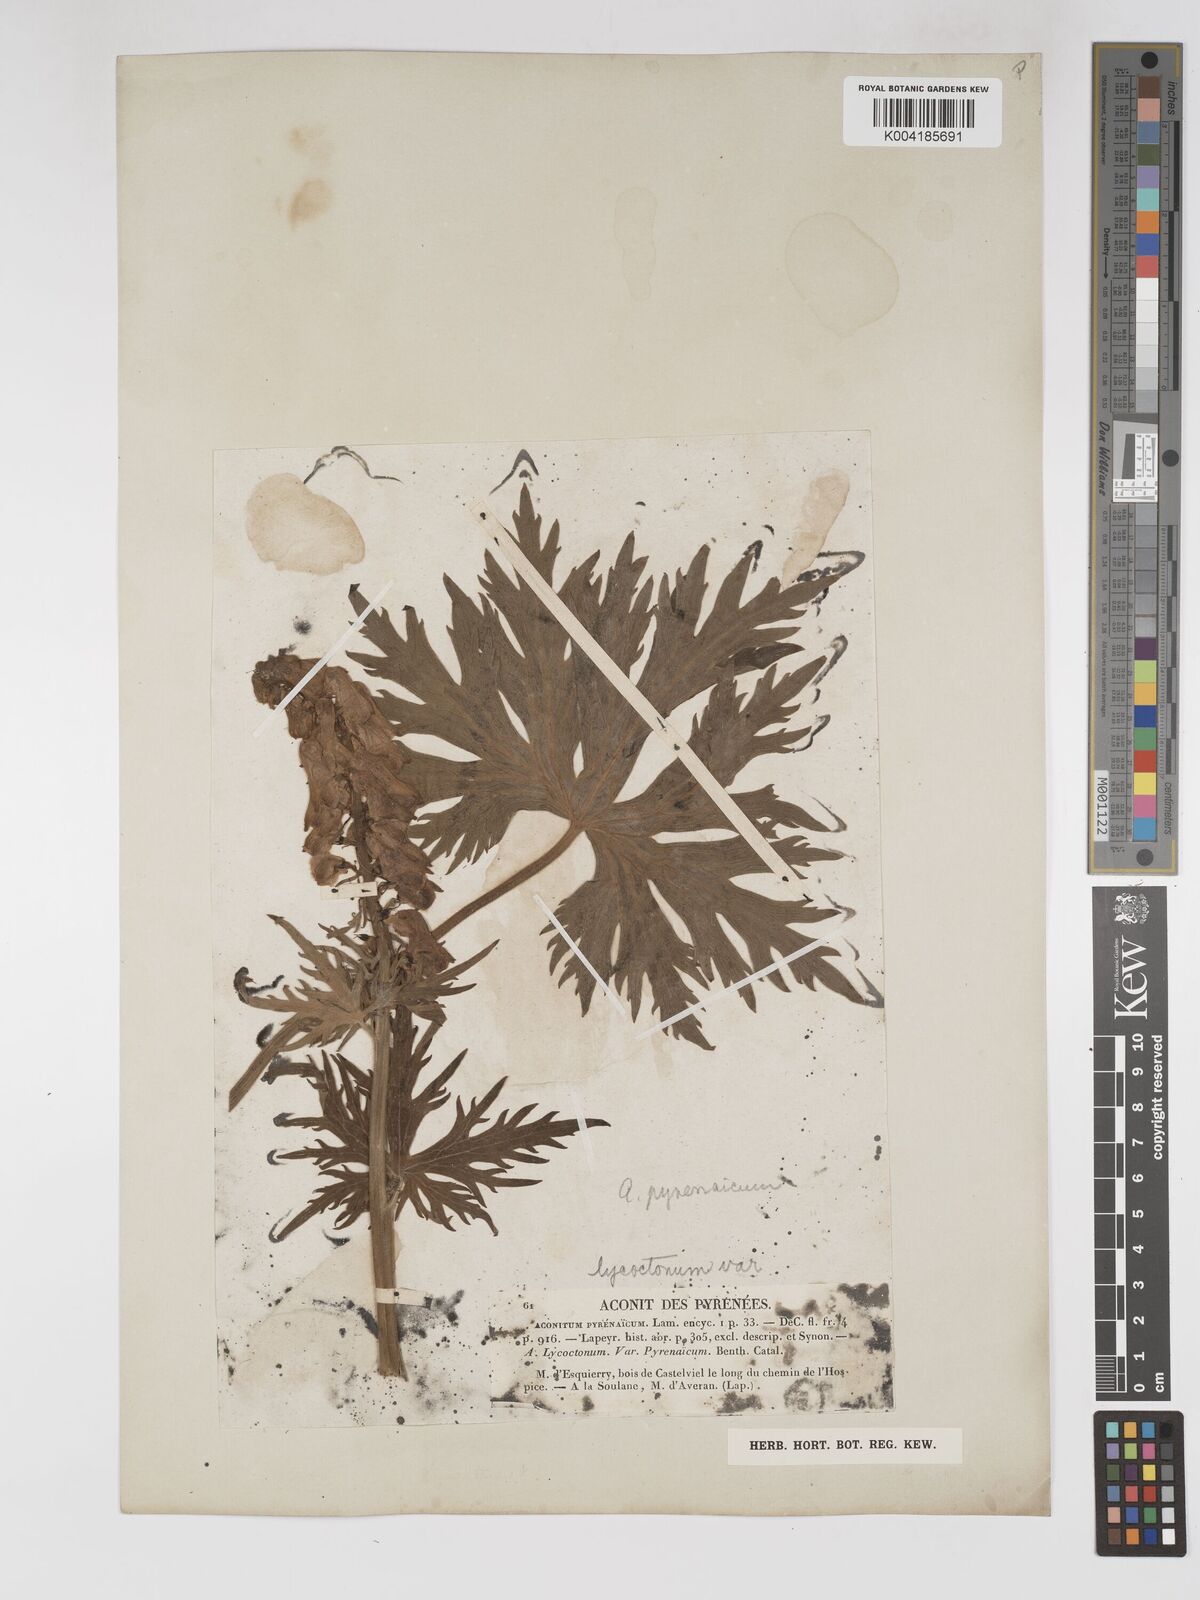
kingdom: Plantae
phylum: Tracheophyta
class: Magnoliopsida
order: Ranunculales
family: Ranunculaceae
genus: Aconitum
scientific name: Aconitum lycoctonum
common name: Wolf's-bane
